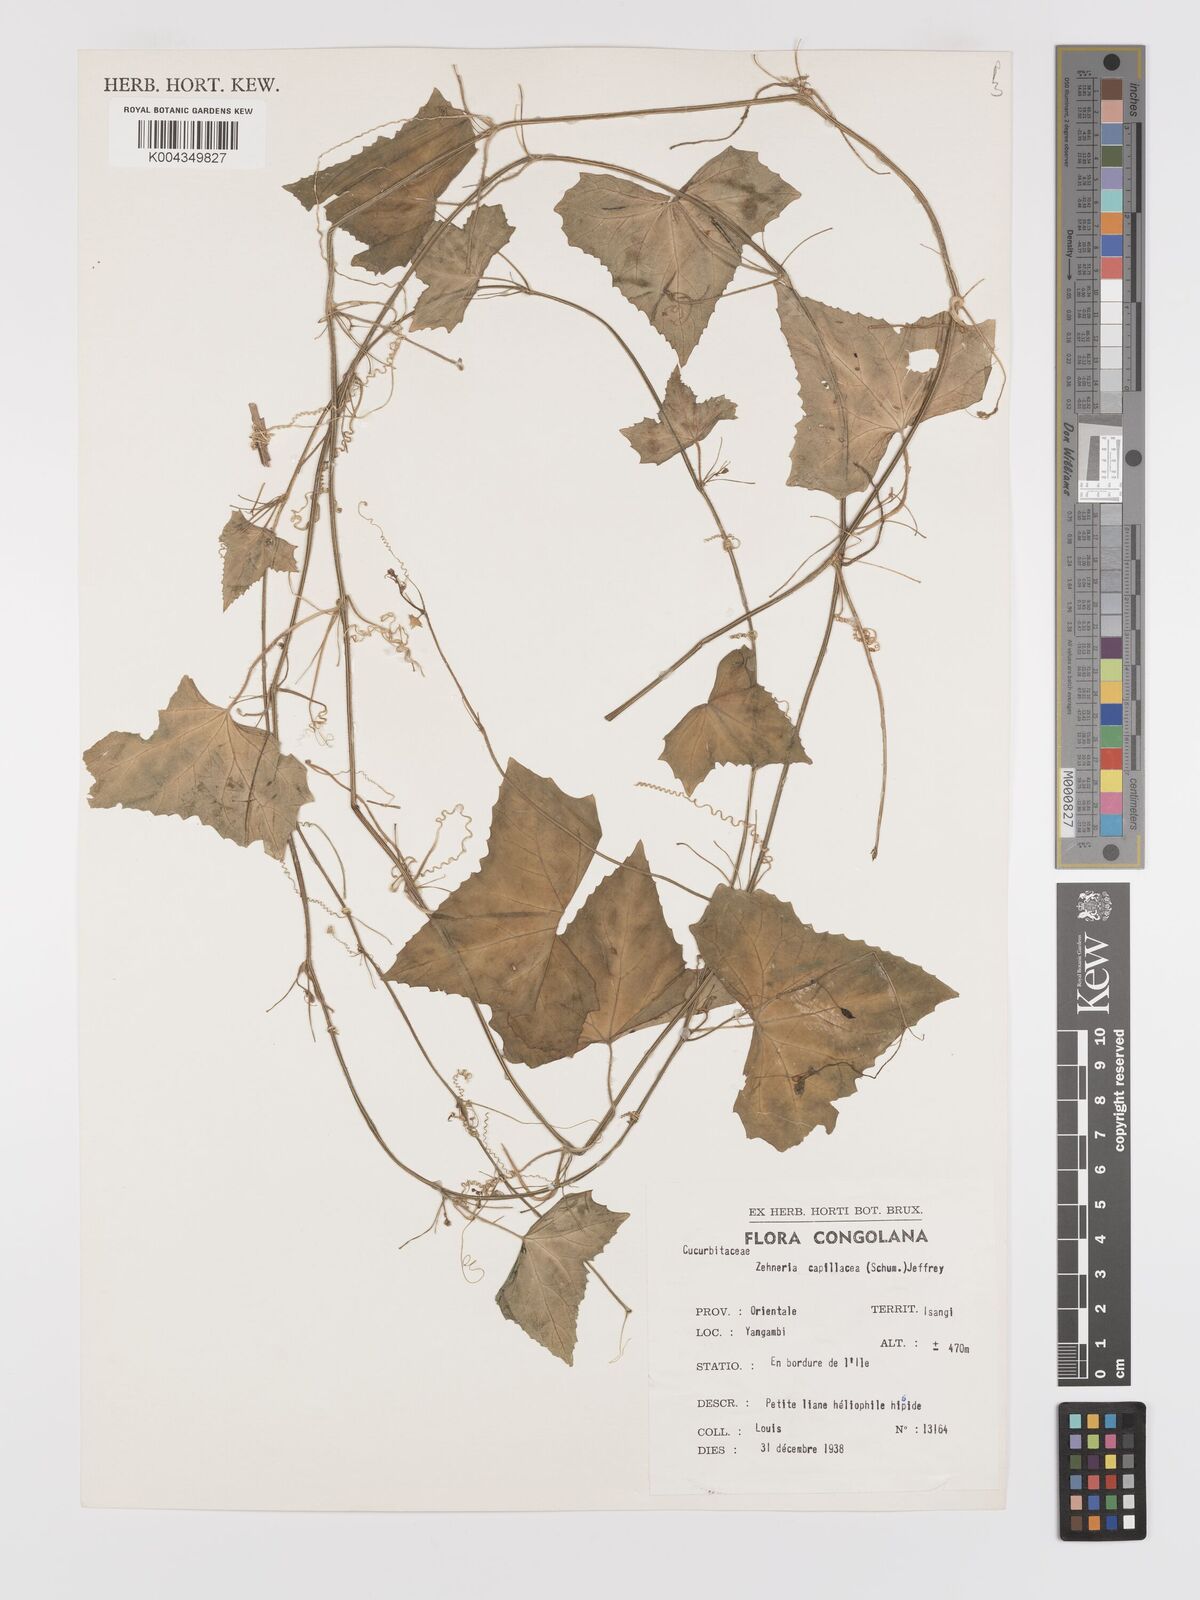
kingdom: Plantae
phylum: Tracheophyta
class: Magnoliopsida
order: Cucurbitales
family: Cucurbitaceae
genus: Zehneria
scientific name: Zehneria capillacea
